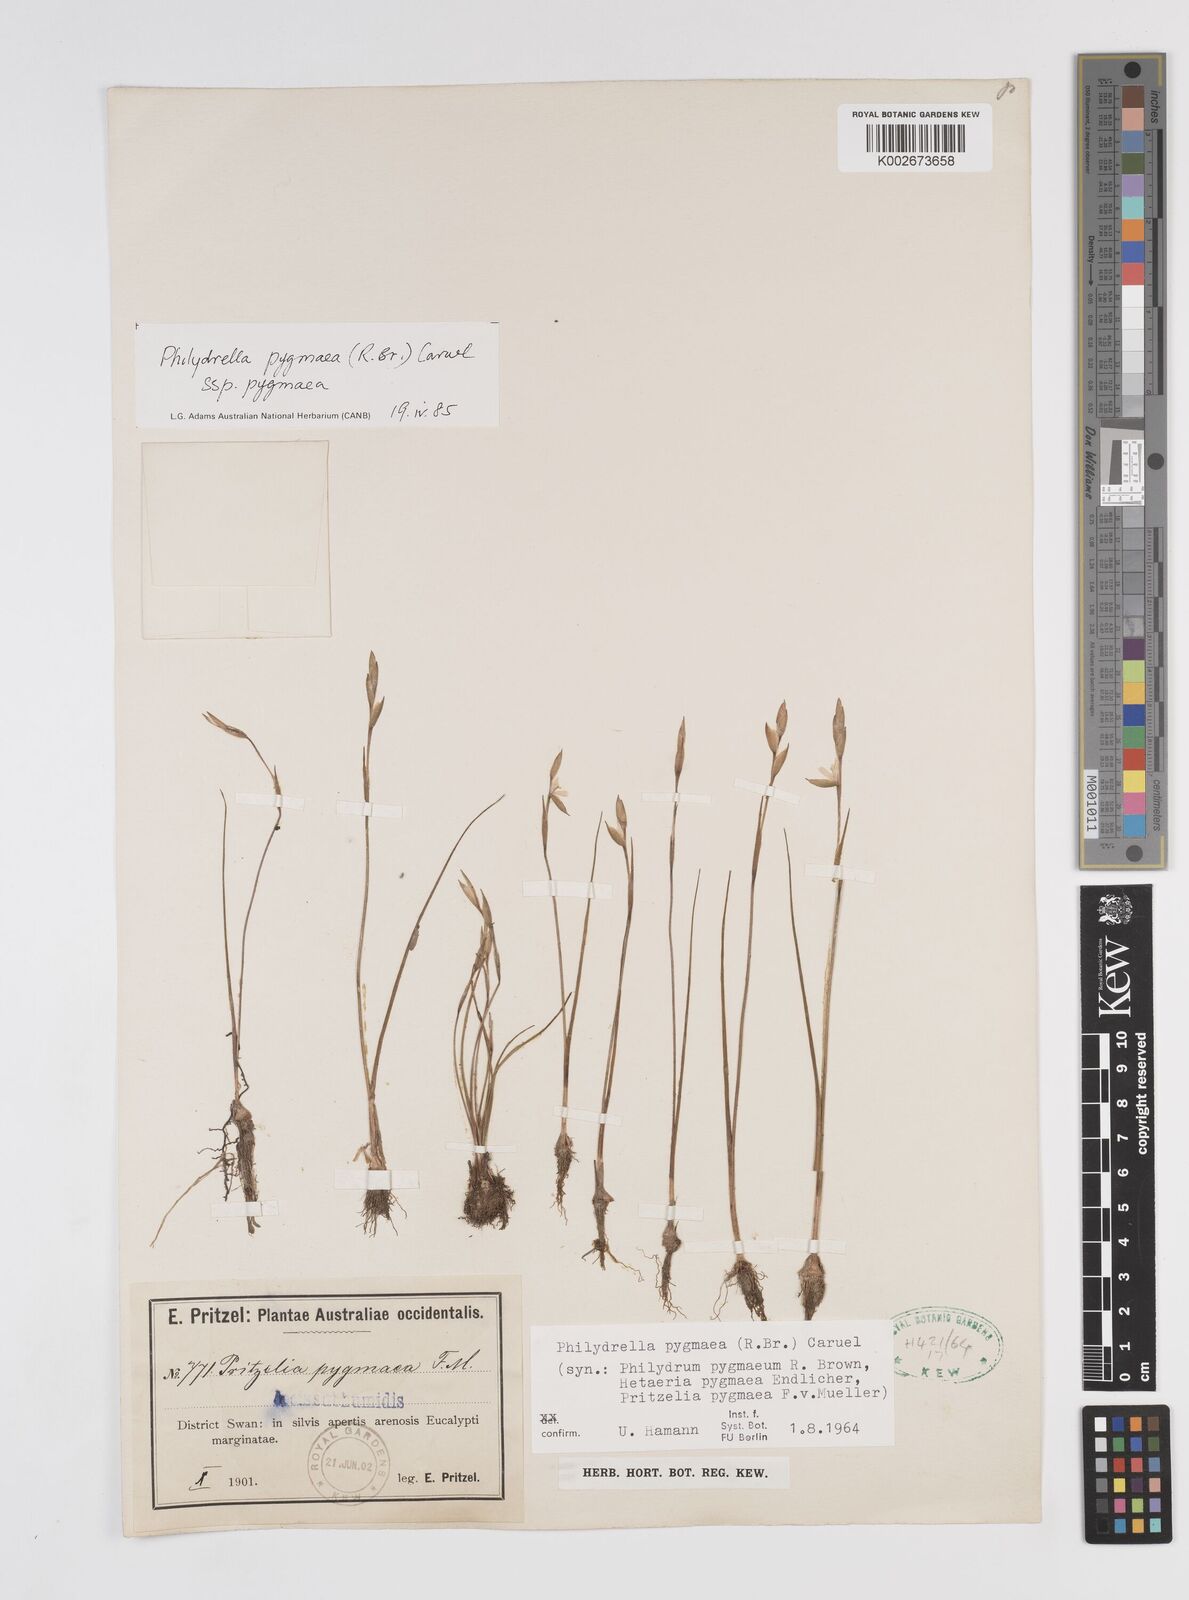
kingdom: Plantae
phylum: Tracheophyta
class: Liliopsida
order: Commelinales
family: Philydraceae
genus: Philydrella
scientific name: Philydrella pygmaea
